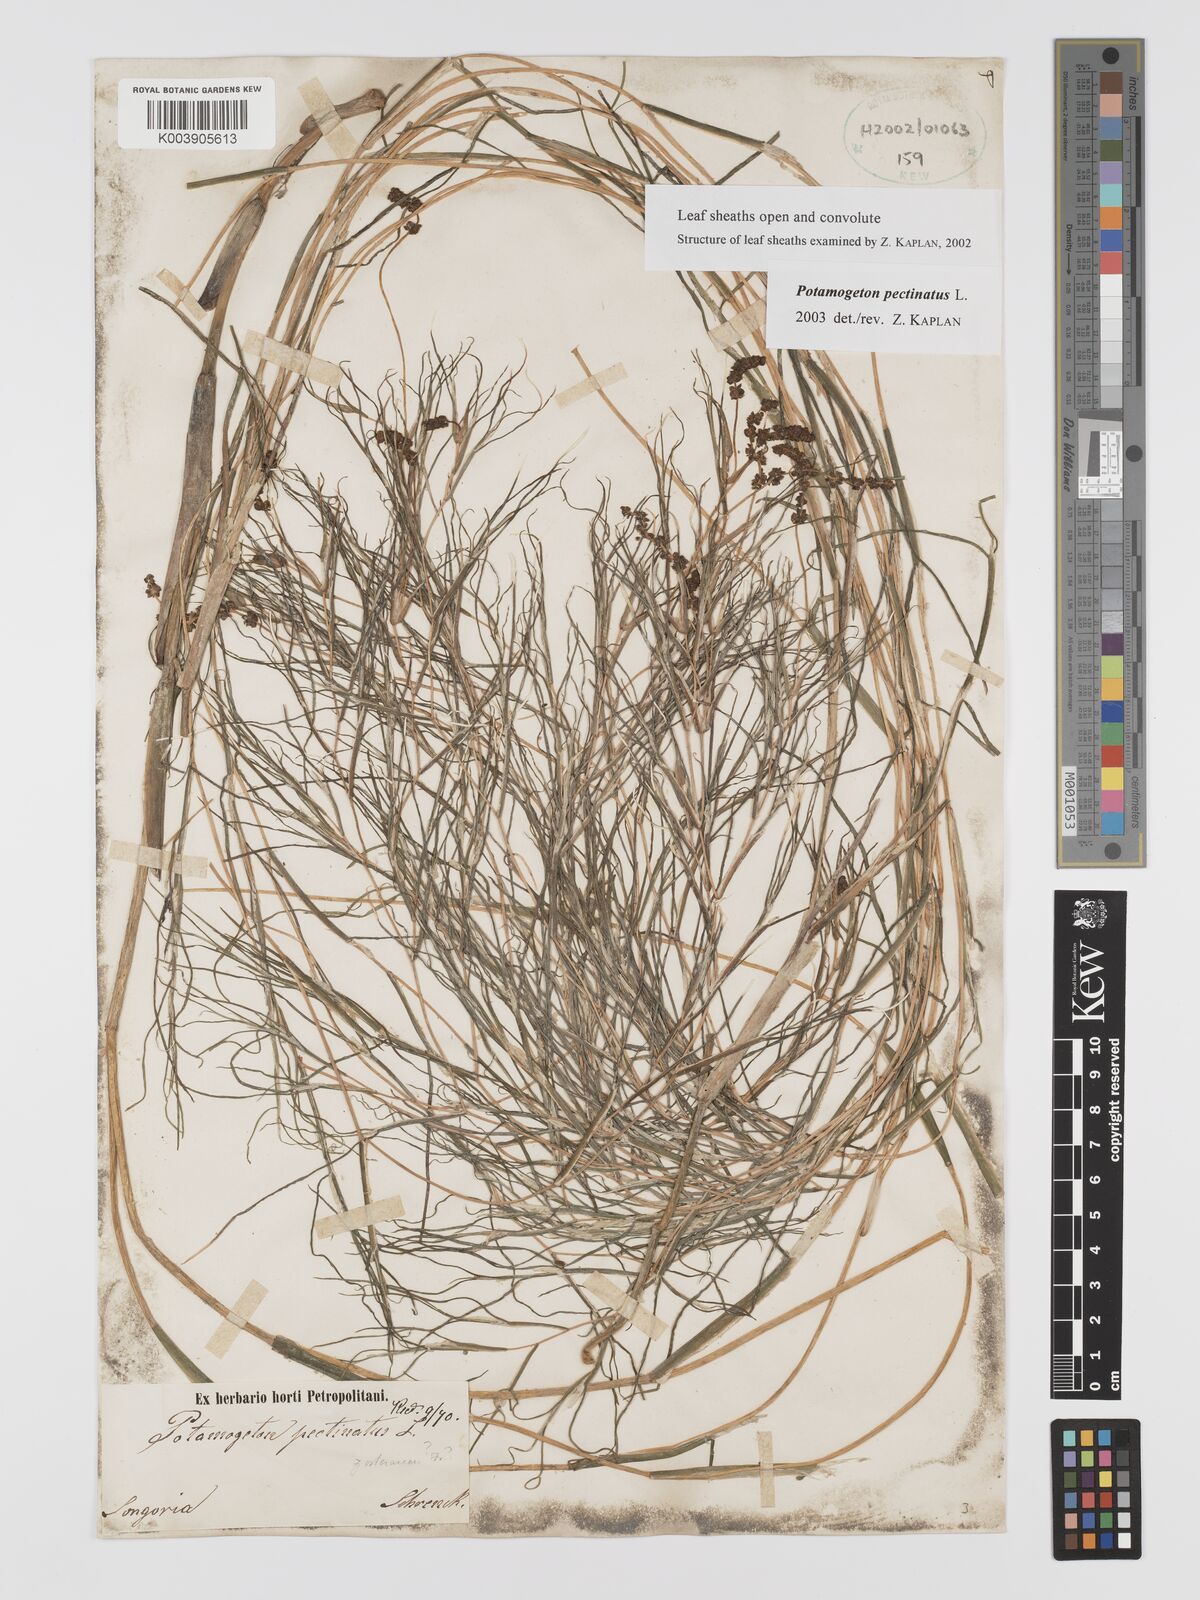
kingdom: Plantae
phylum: Tracheophyta
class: Liliopsida
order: Alismatales
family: Potamogetonaceae
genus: Stuckenia
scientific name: Stuckenia pectinata
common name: Sago pondweed
